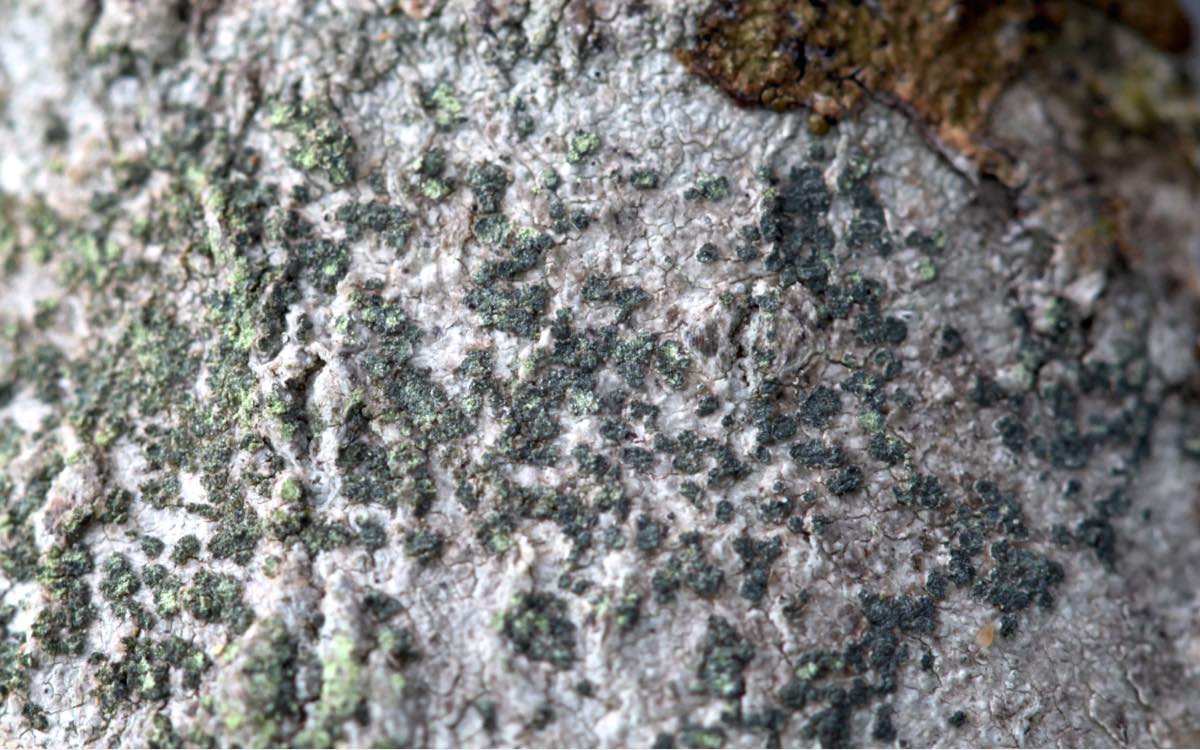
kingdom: Fungi
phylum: Ascomycota
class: Lecanoromycetes
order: Lecanorales
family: Sarrameanaceae
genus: Loxospora
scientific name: Loxospora elatina
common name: hvidlig brunskivelav
